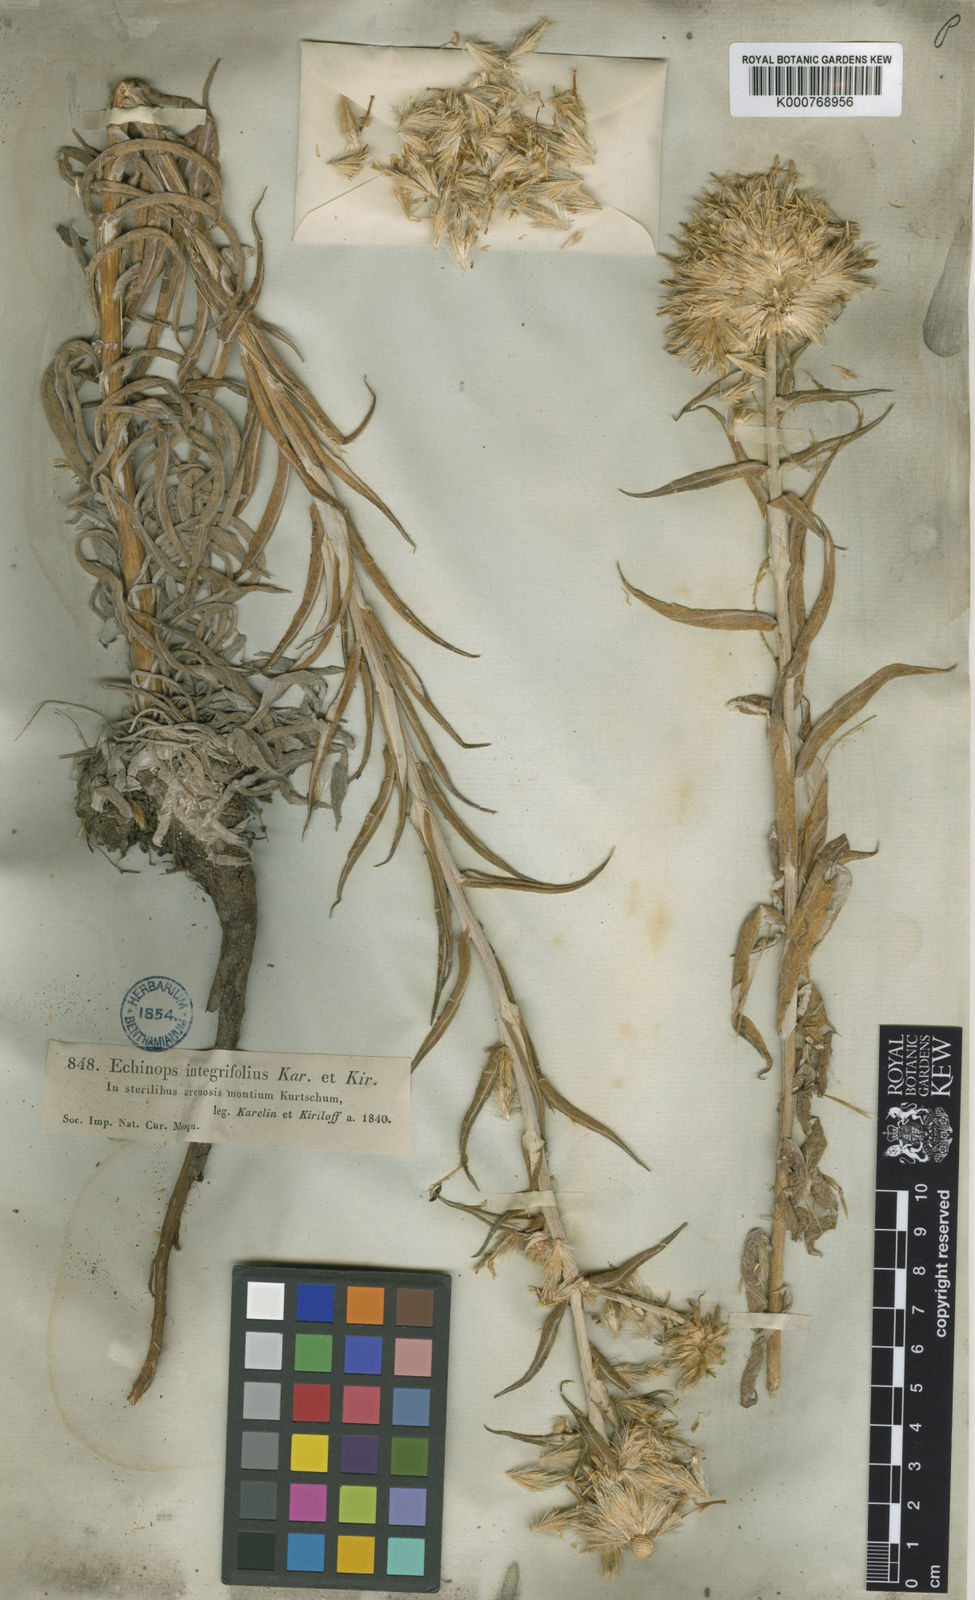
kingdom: Plantae
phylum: Tracheophyta
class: Magnoliopsida
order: Asterales
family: Asteraceae
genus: Echinops
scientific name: Echinops integrifolius
